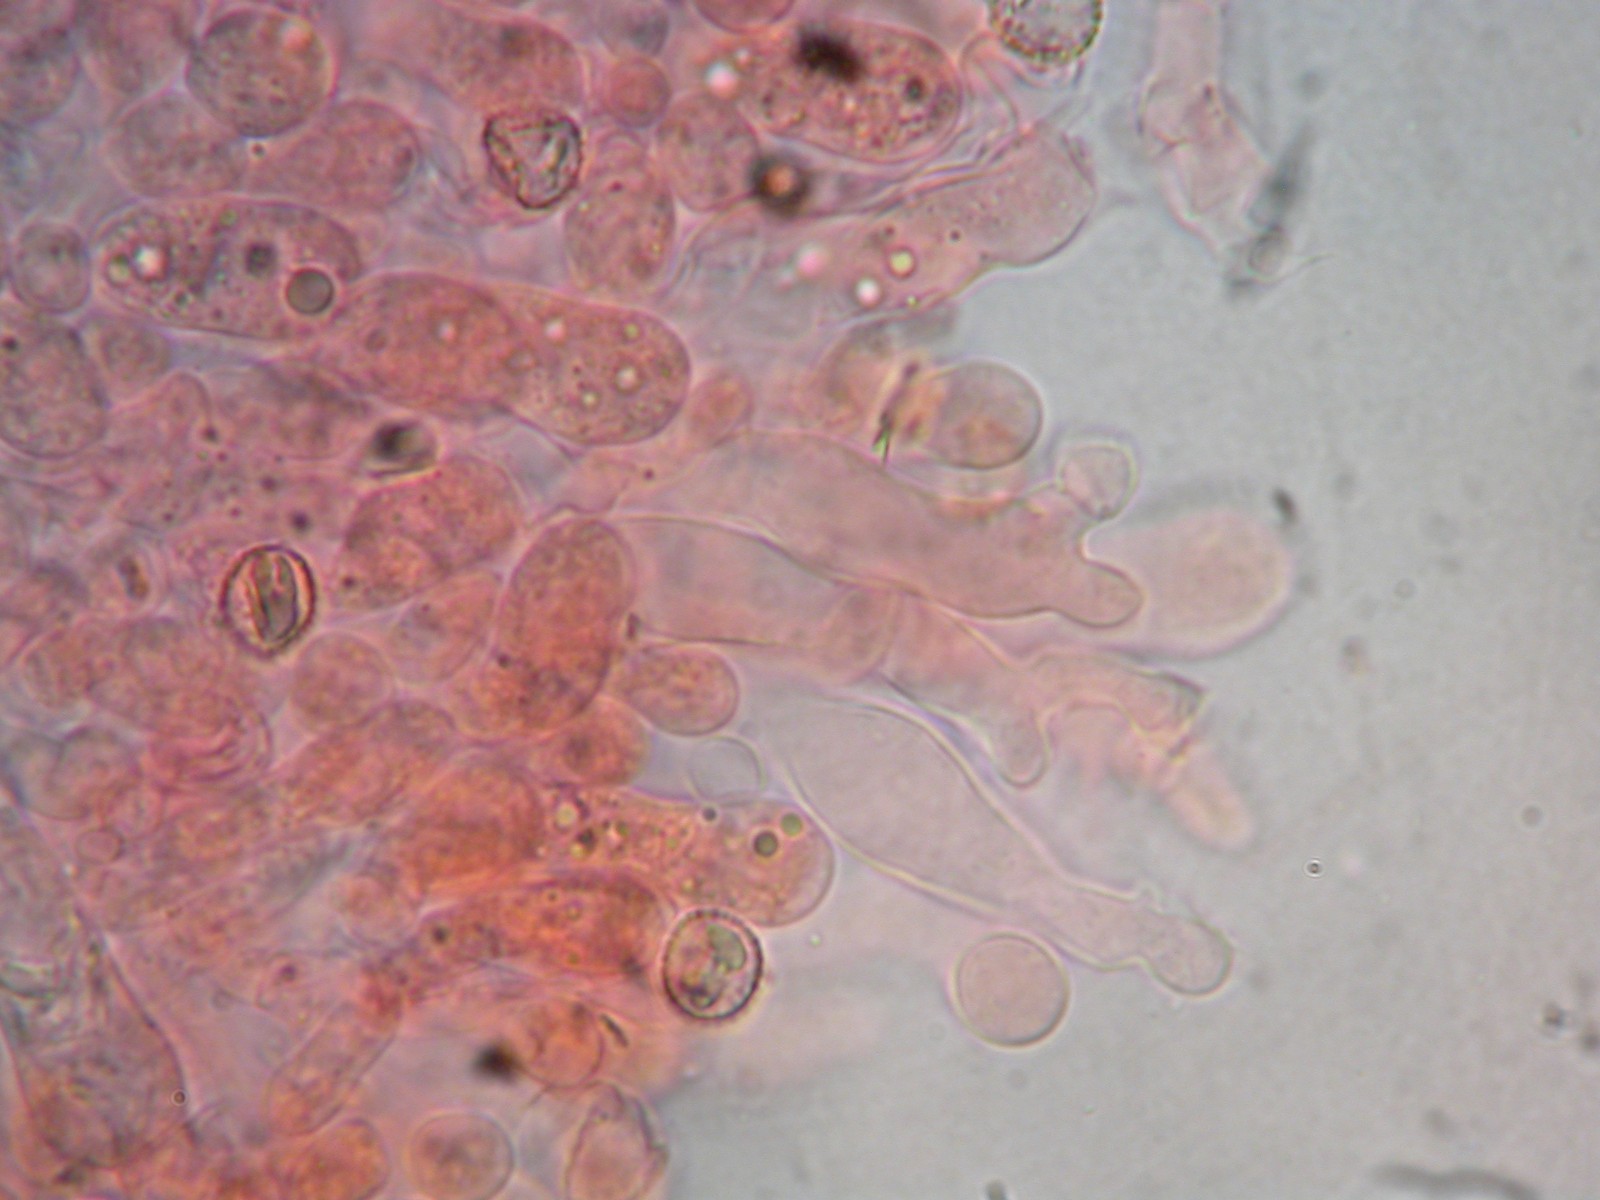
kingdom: Fungi
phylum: Basidiomycota
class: Agaricomycetes
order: Agaricales
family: Crepidotaceae
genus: Crepidotus
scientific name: Crepidotus cesatii
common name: almindelig muslingesvamp
